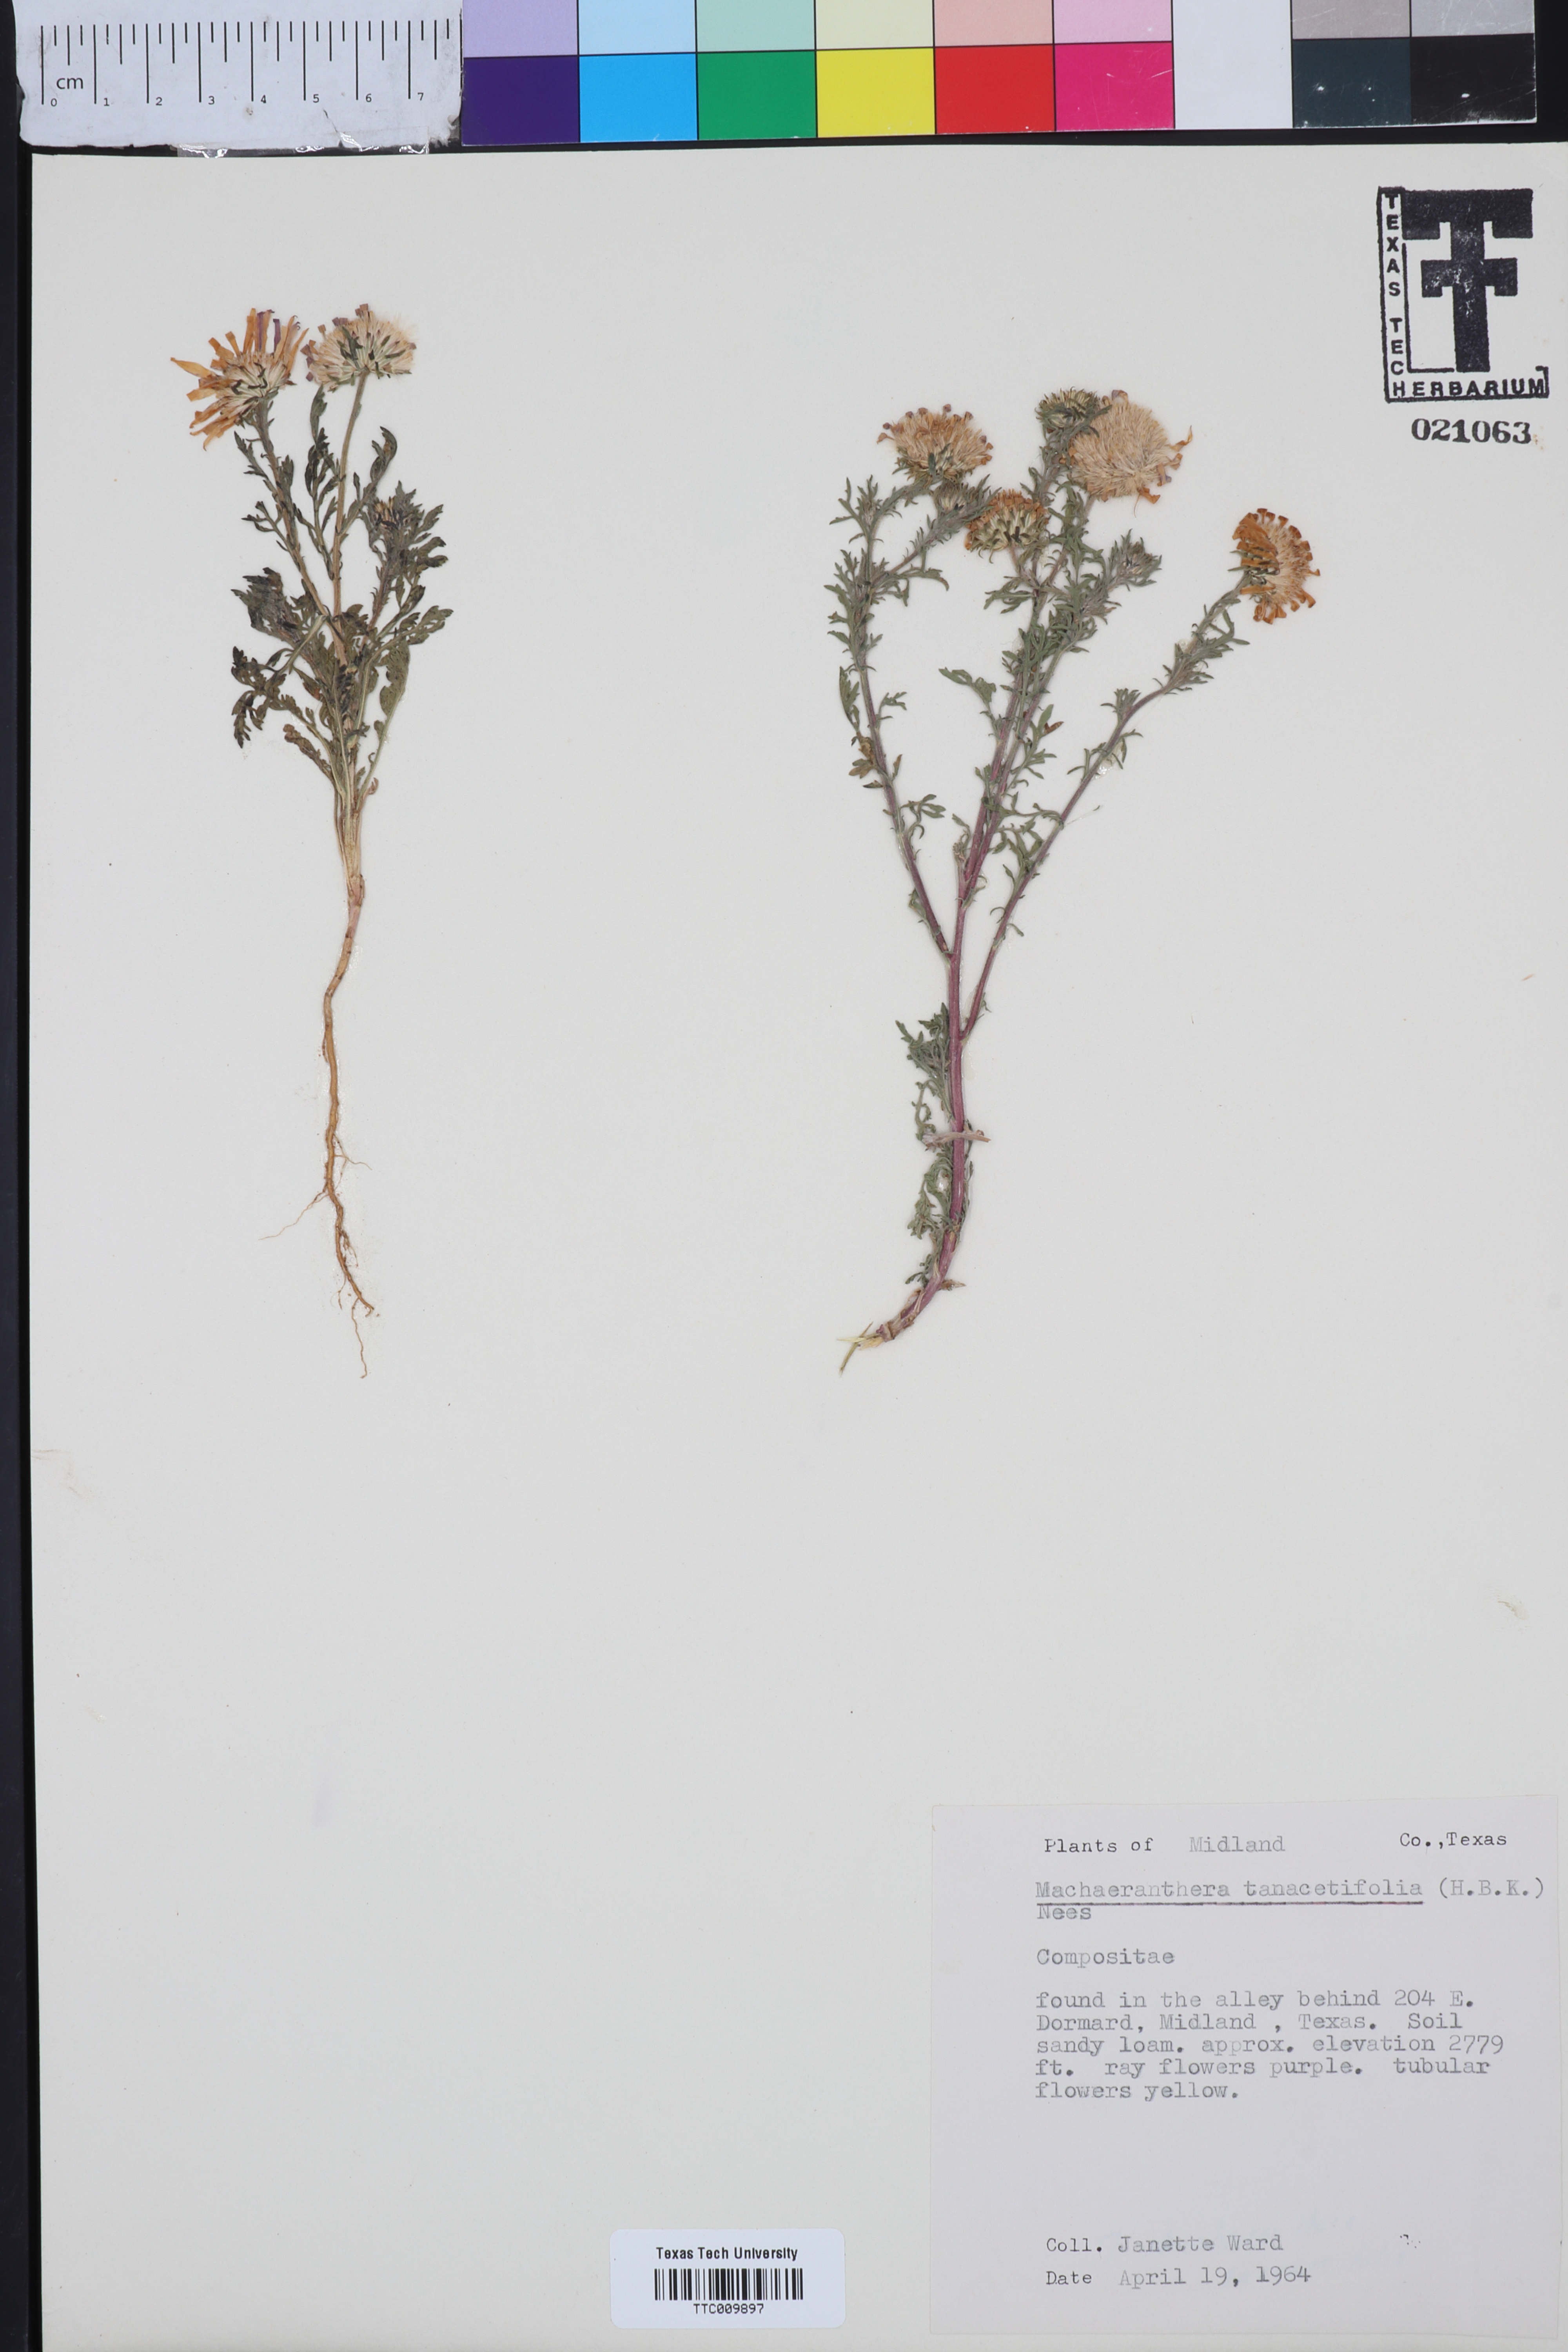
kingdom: Plantae
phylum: Tracheophyta
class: Magnoliopsida
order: Asterales
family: Asteraceae
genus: Machaeranthera
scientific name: Machaeranthera tanacetifolia
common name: Tansy-aster
